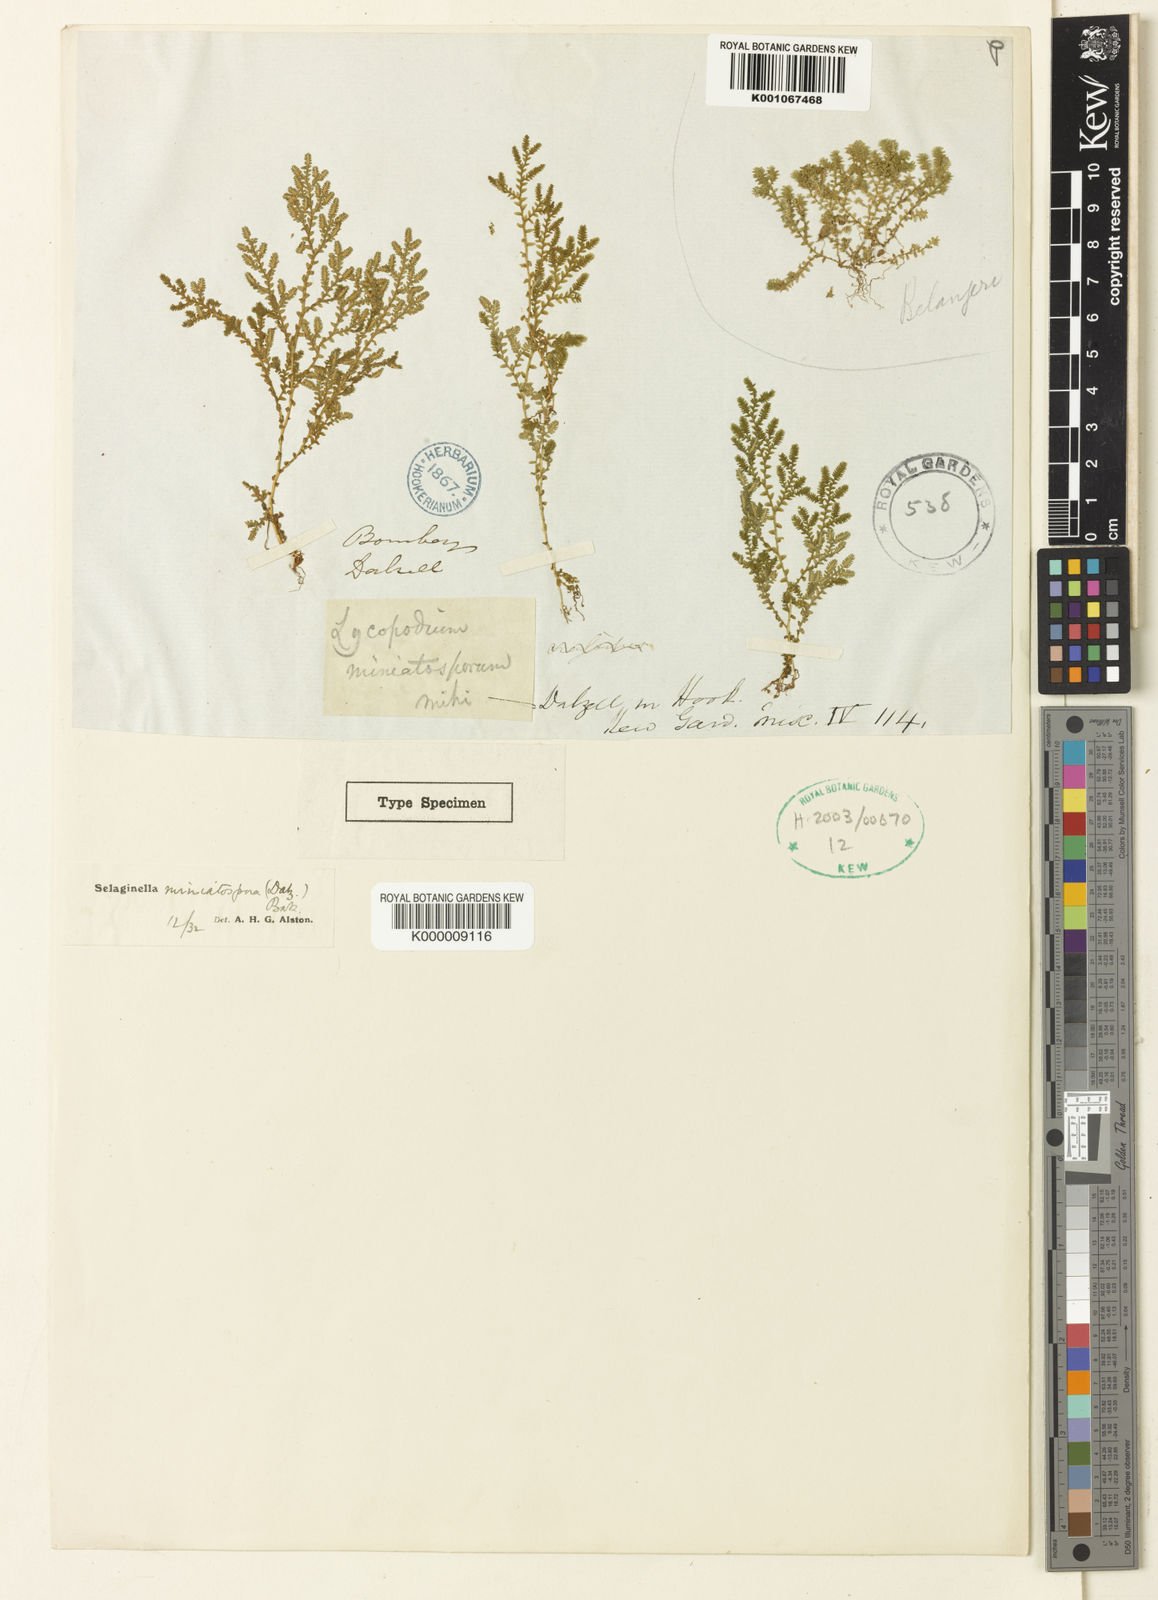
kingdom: Plantae
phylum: Tracheophyta
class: Lycopodiopsida
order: Selaginellales
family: Selaginellaceae
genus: Selaginella
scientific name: Selaginella miniatospora
